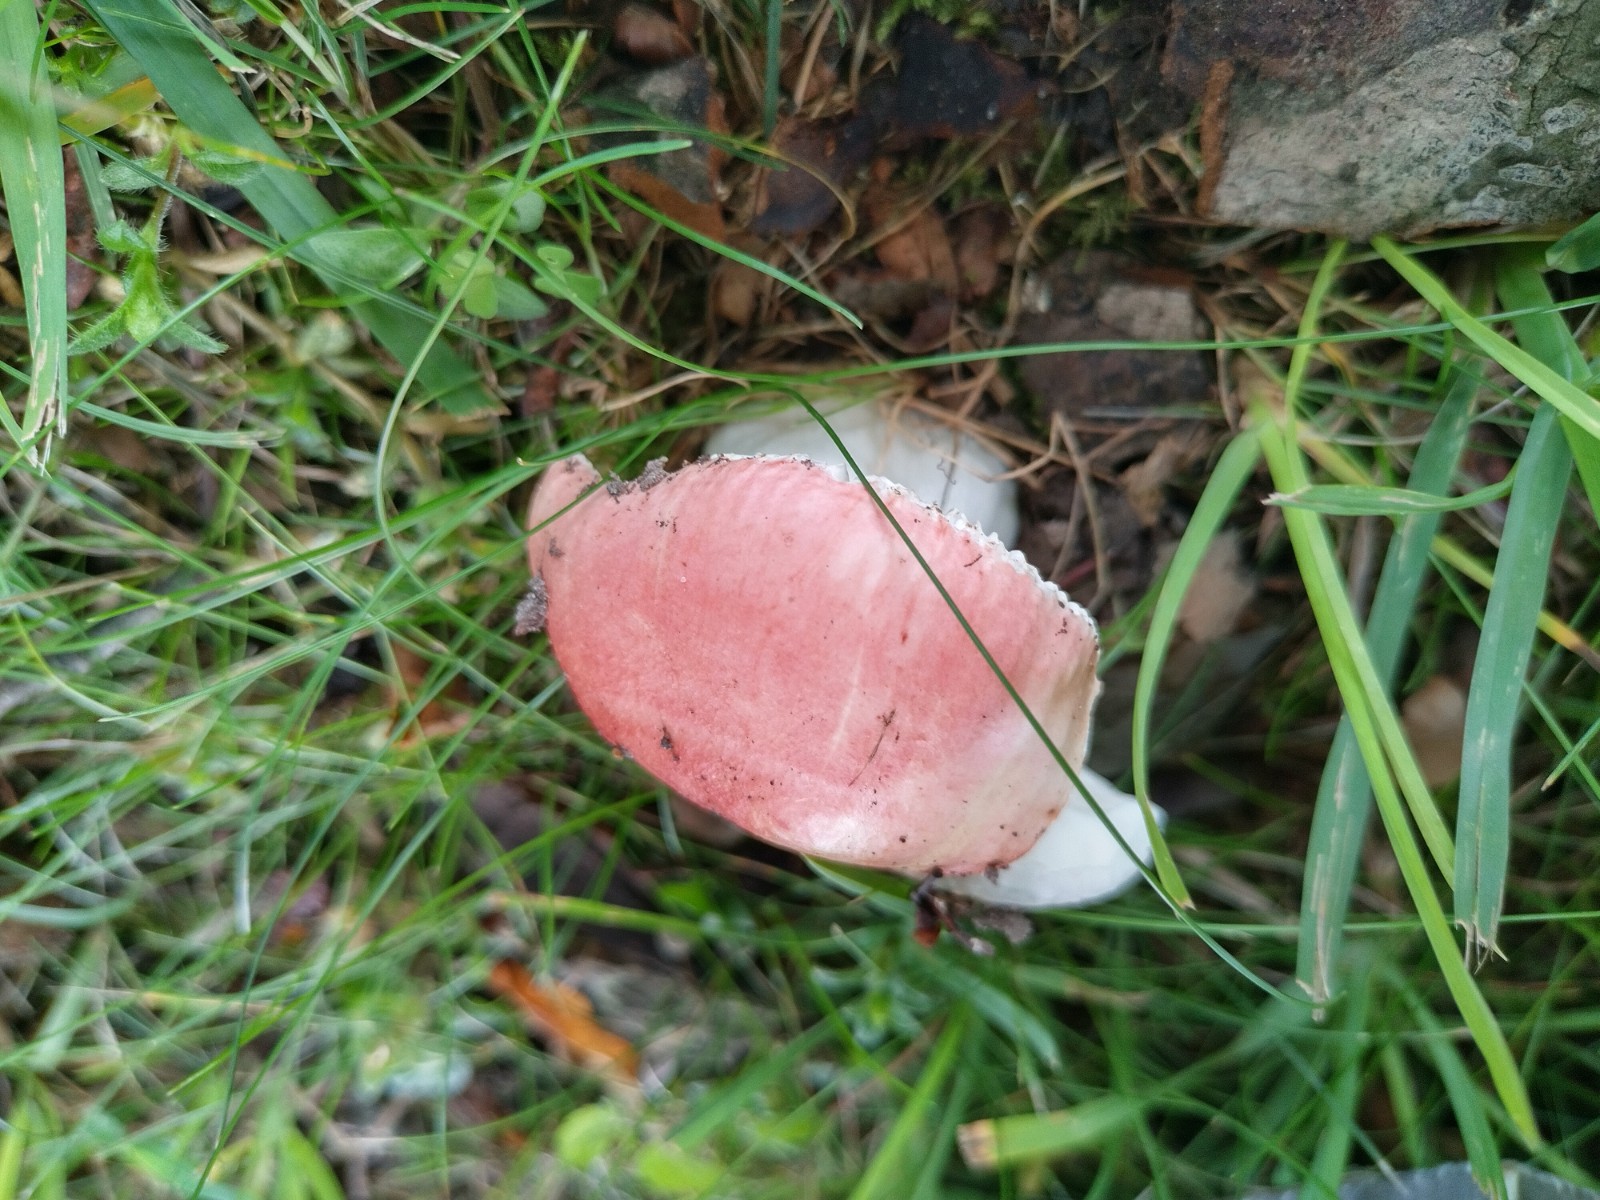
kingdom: Fungi
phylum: Basidiomycota
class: Agaricomycetes
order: Russulales
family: Russulaceae
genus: Russula
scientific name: Russula vesca
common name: spiselig skørhat
